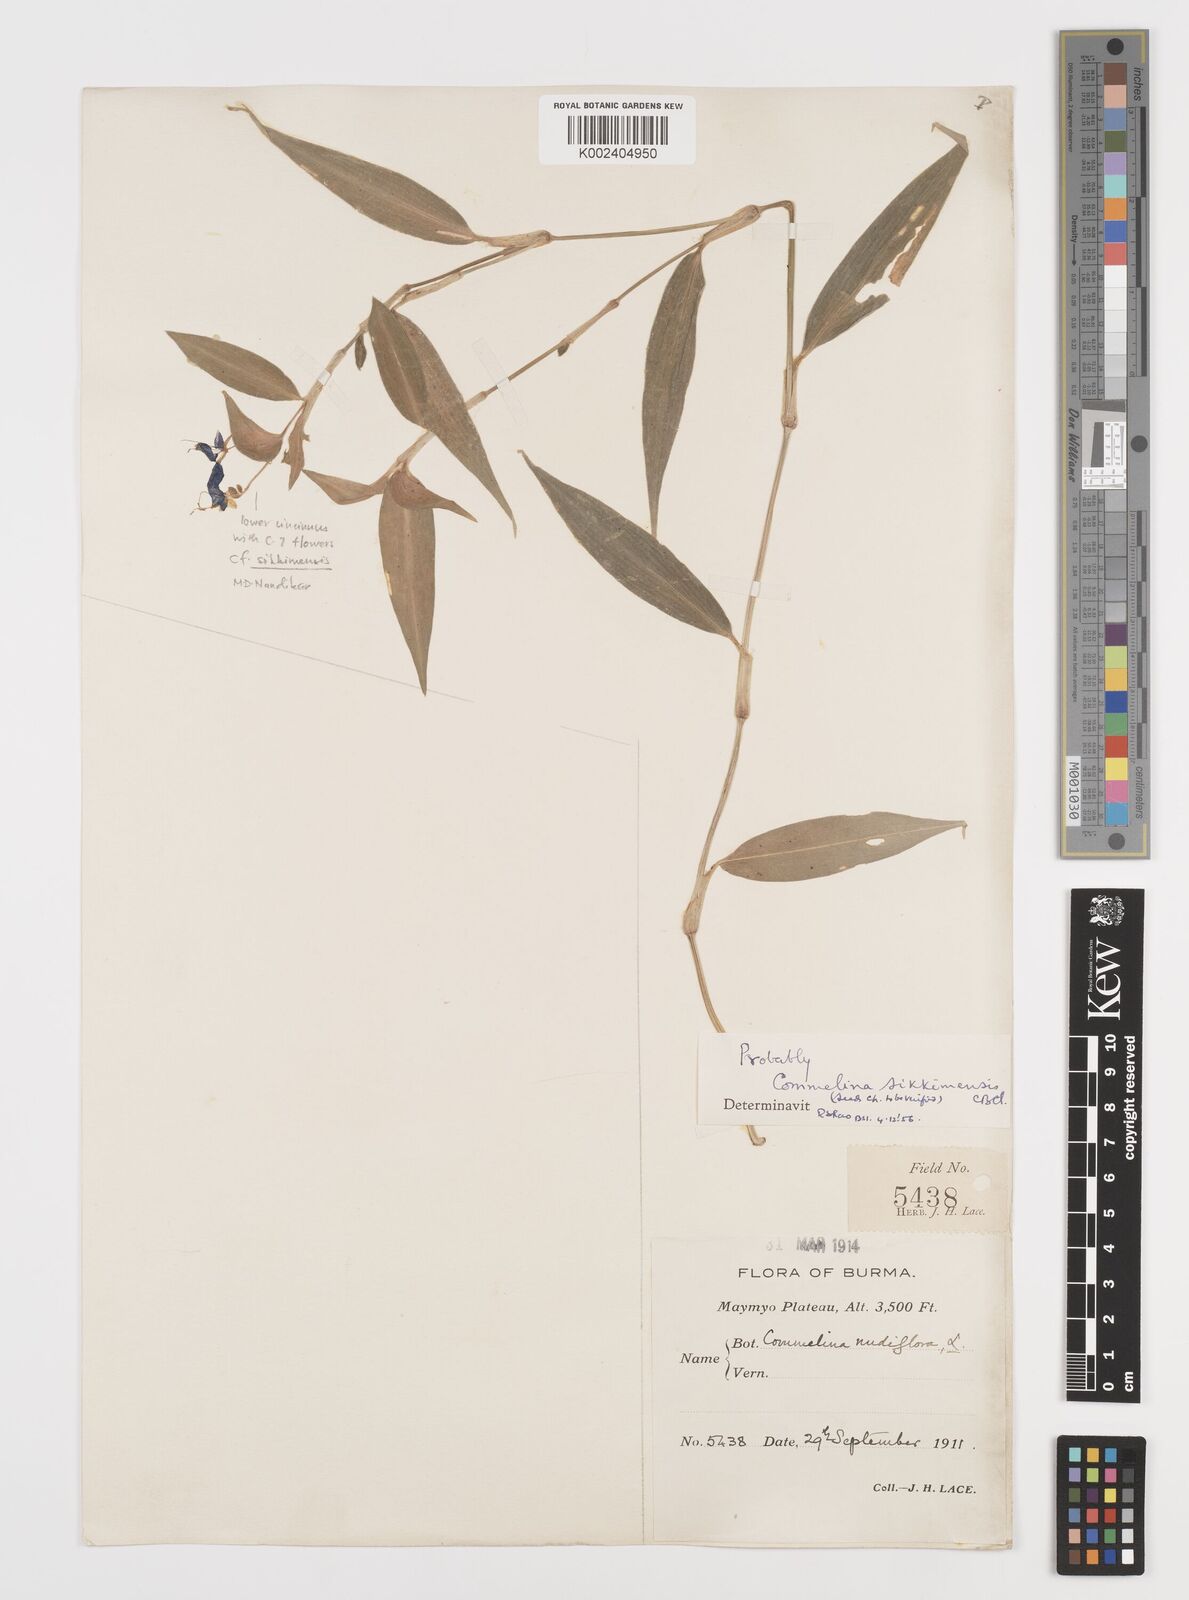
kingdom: Plantae
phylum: Tracheophyta
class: Liliopsida
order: Commelinales
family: Commelinaceae
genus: Commelina
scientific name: Commelina sikkimensis
